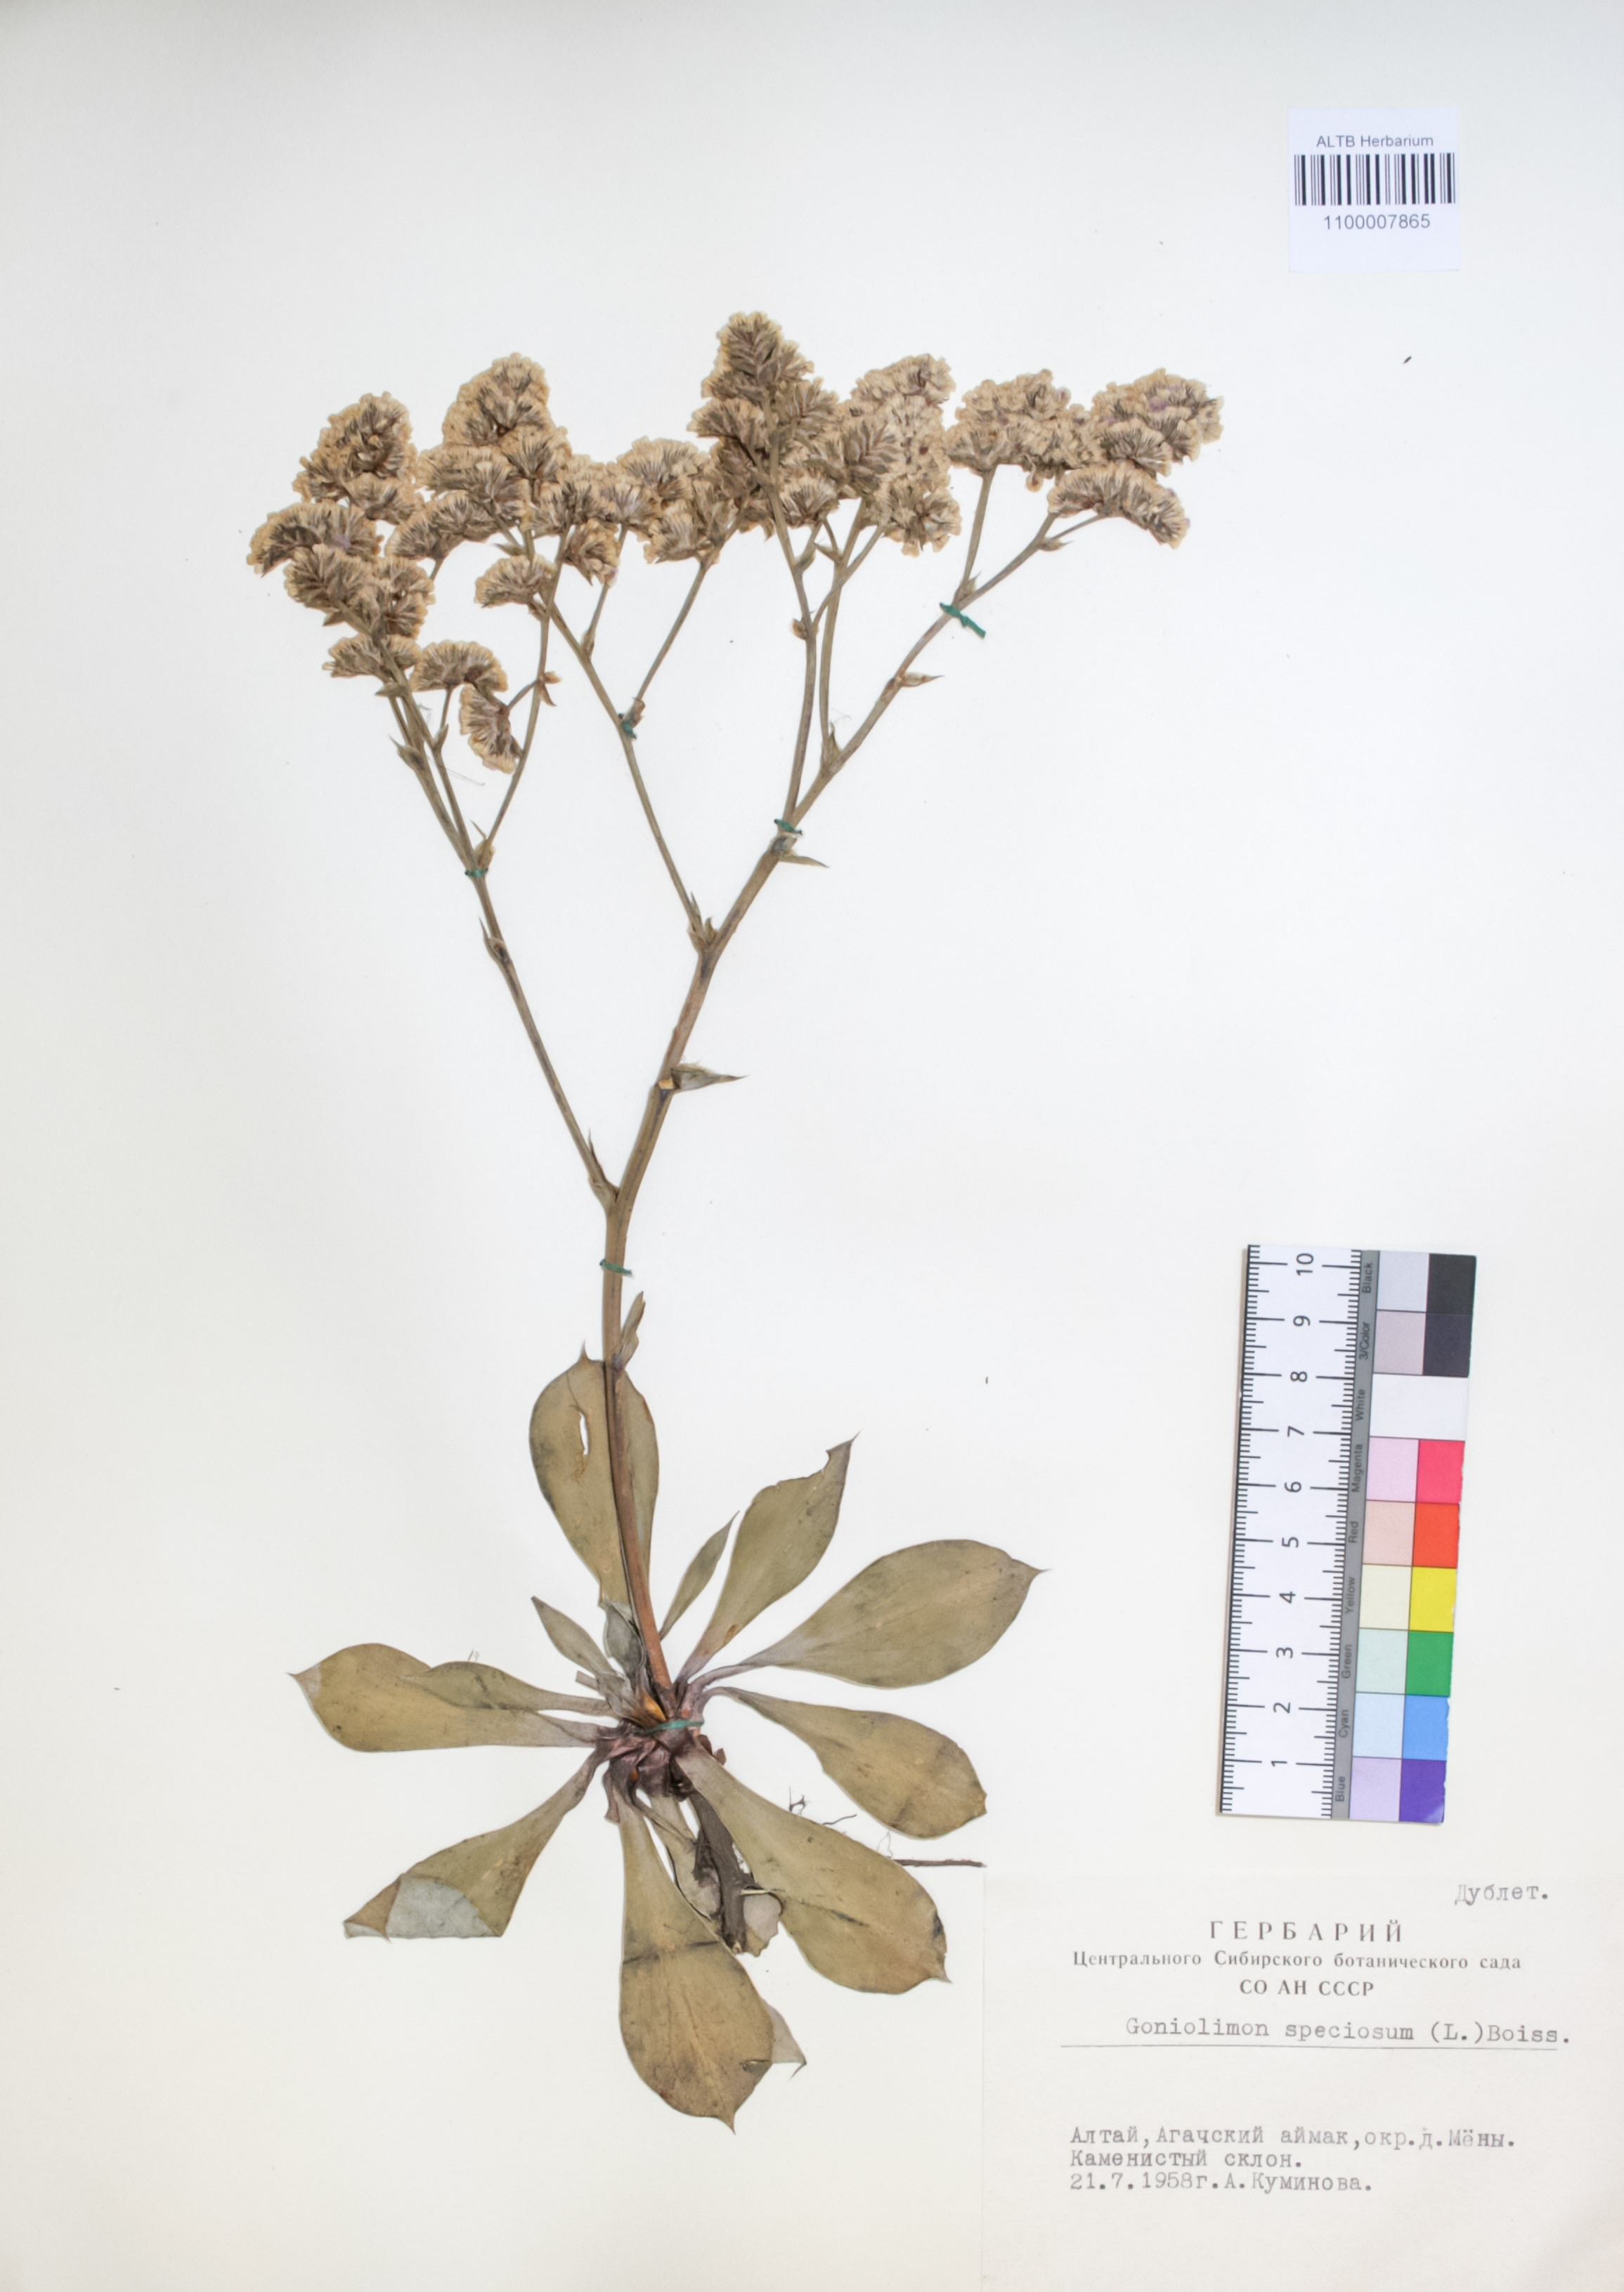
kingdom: Plantae
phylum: Tracheophyta
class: Magnoliopsida
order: Caryophyllales
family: Plumbaginaceae
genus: Goniolimon
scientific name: Goniolimon speciosum
